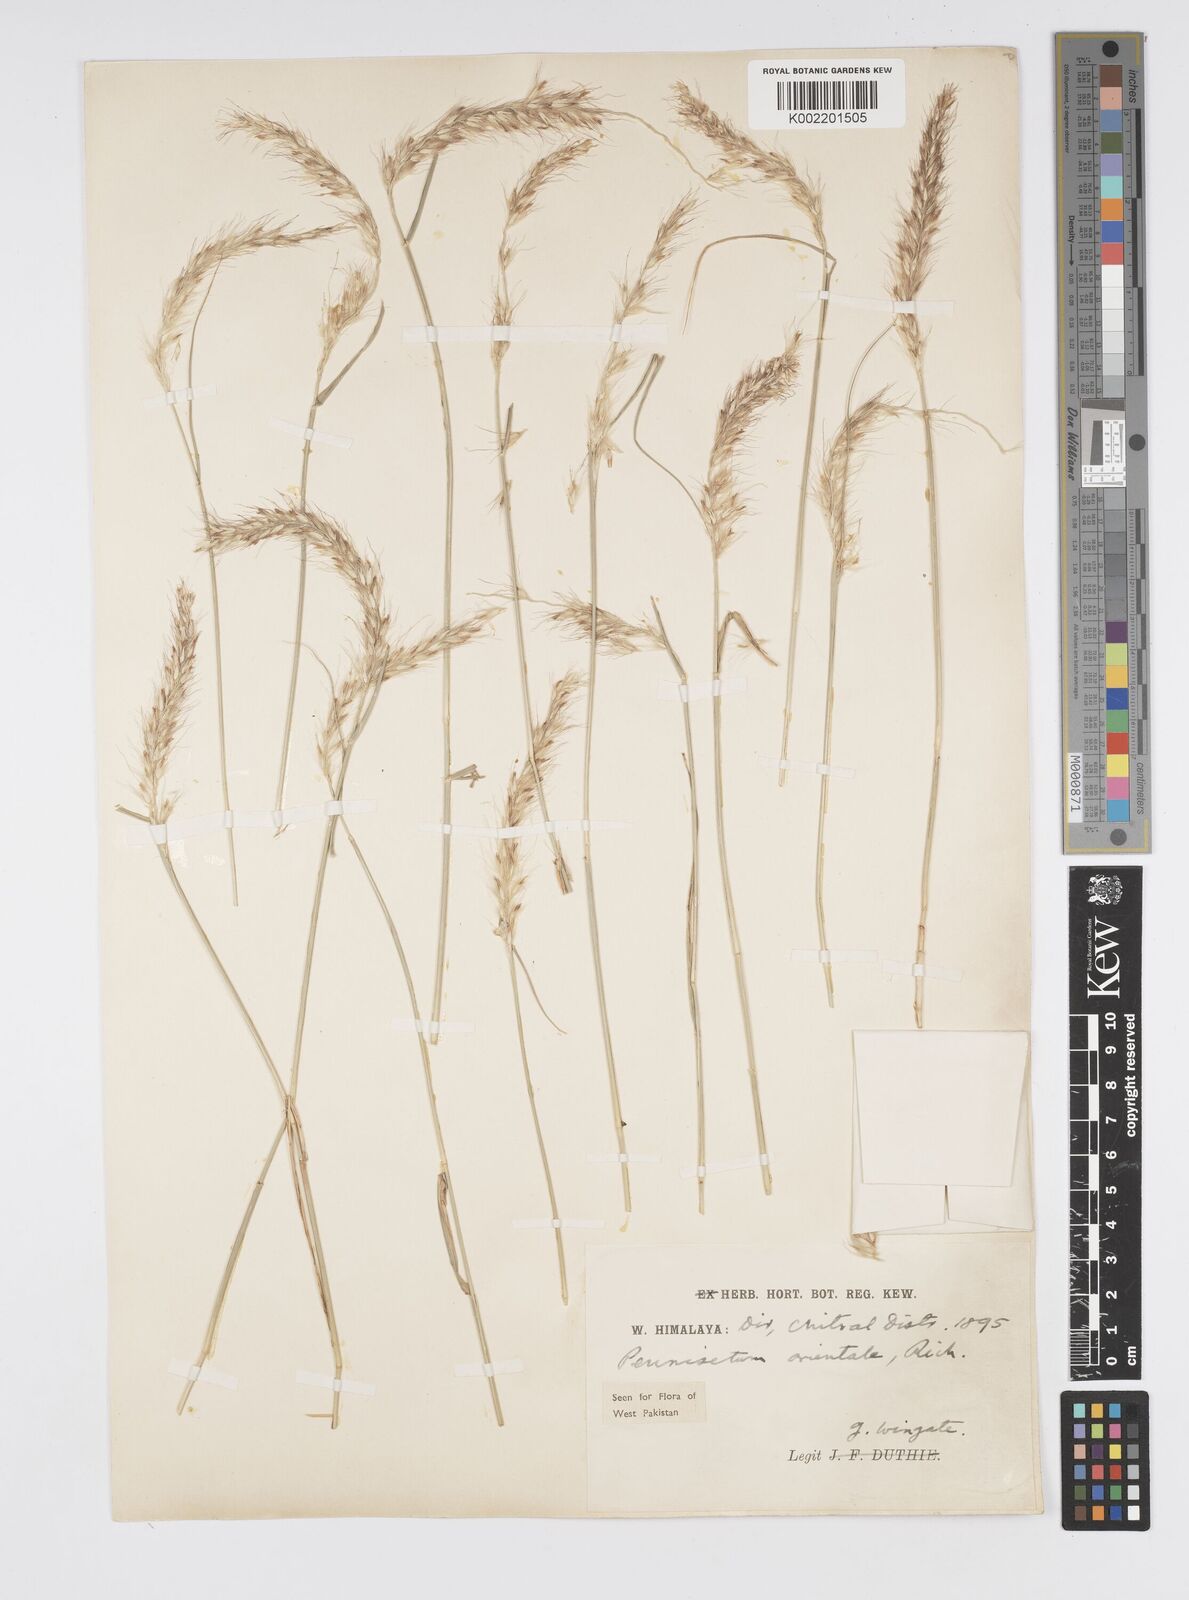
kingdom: Plantae
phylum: Tracheophyta
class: Liliopsida
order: Poales
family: Poaceae
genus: Cenchrus
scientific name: Cenchrus orientalis
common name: Oriental fountain grass
